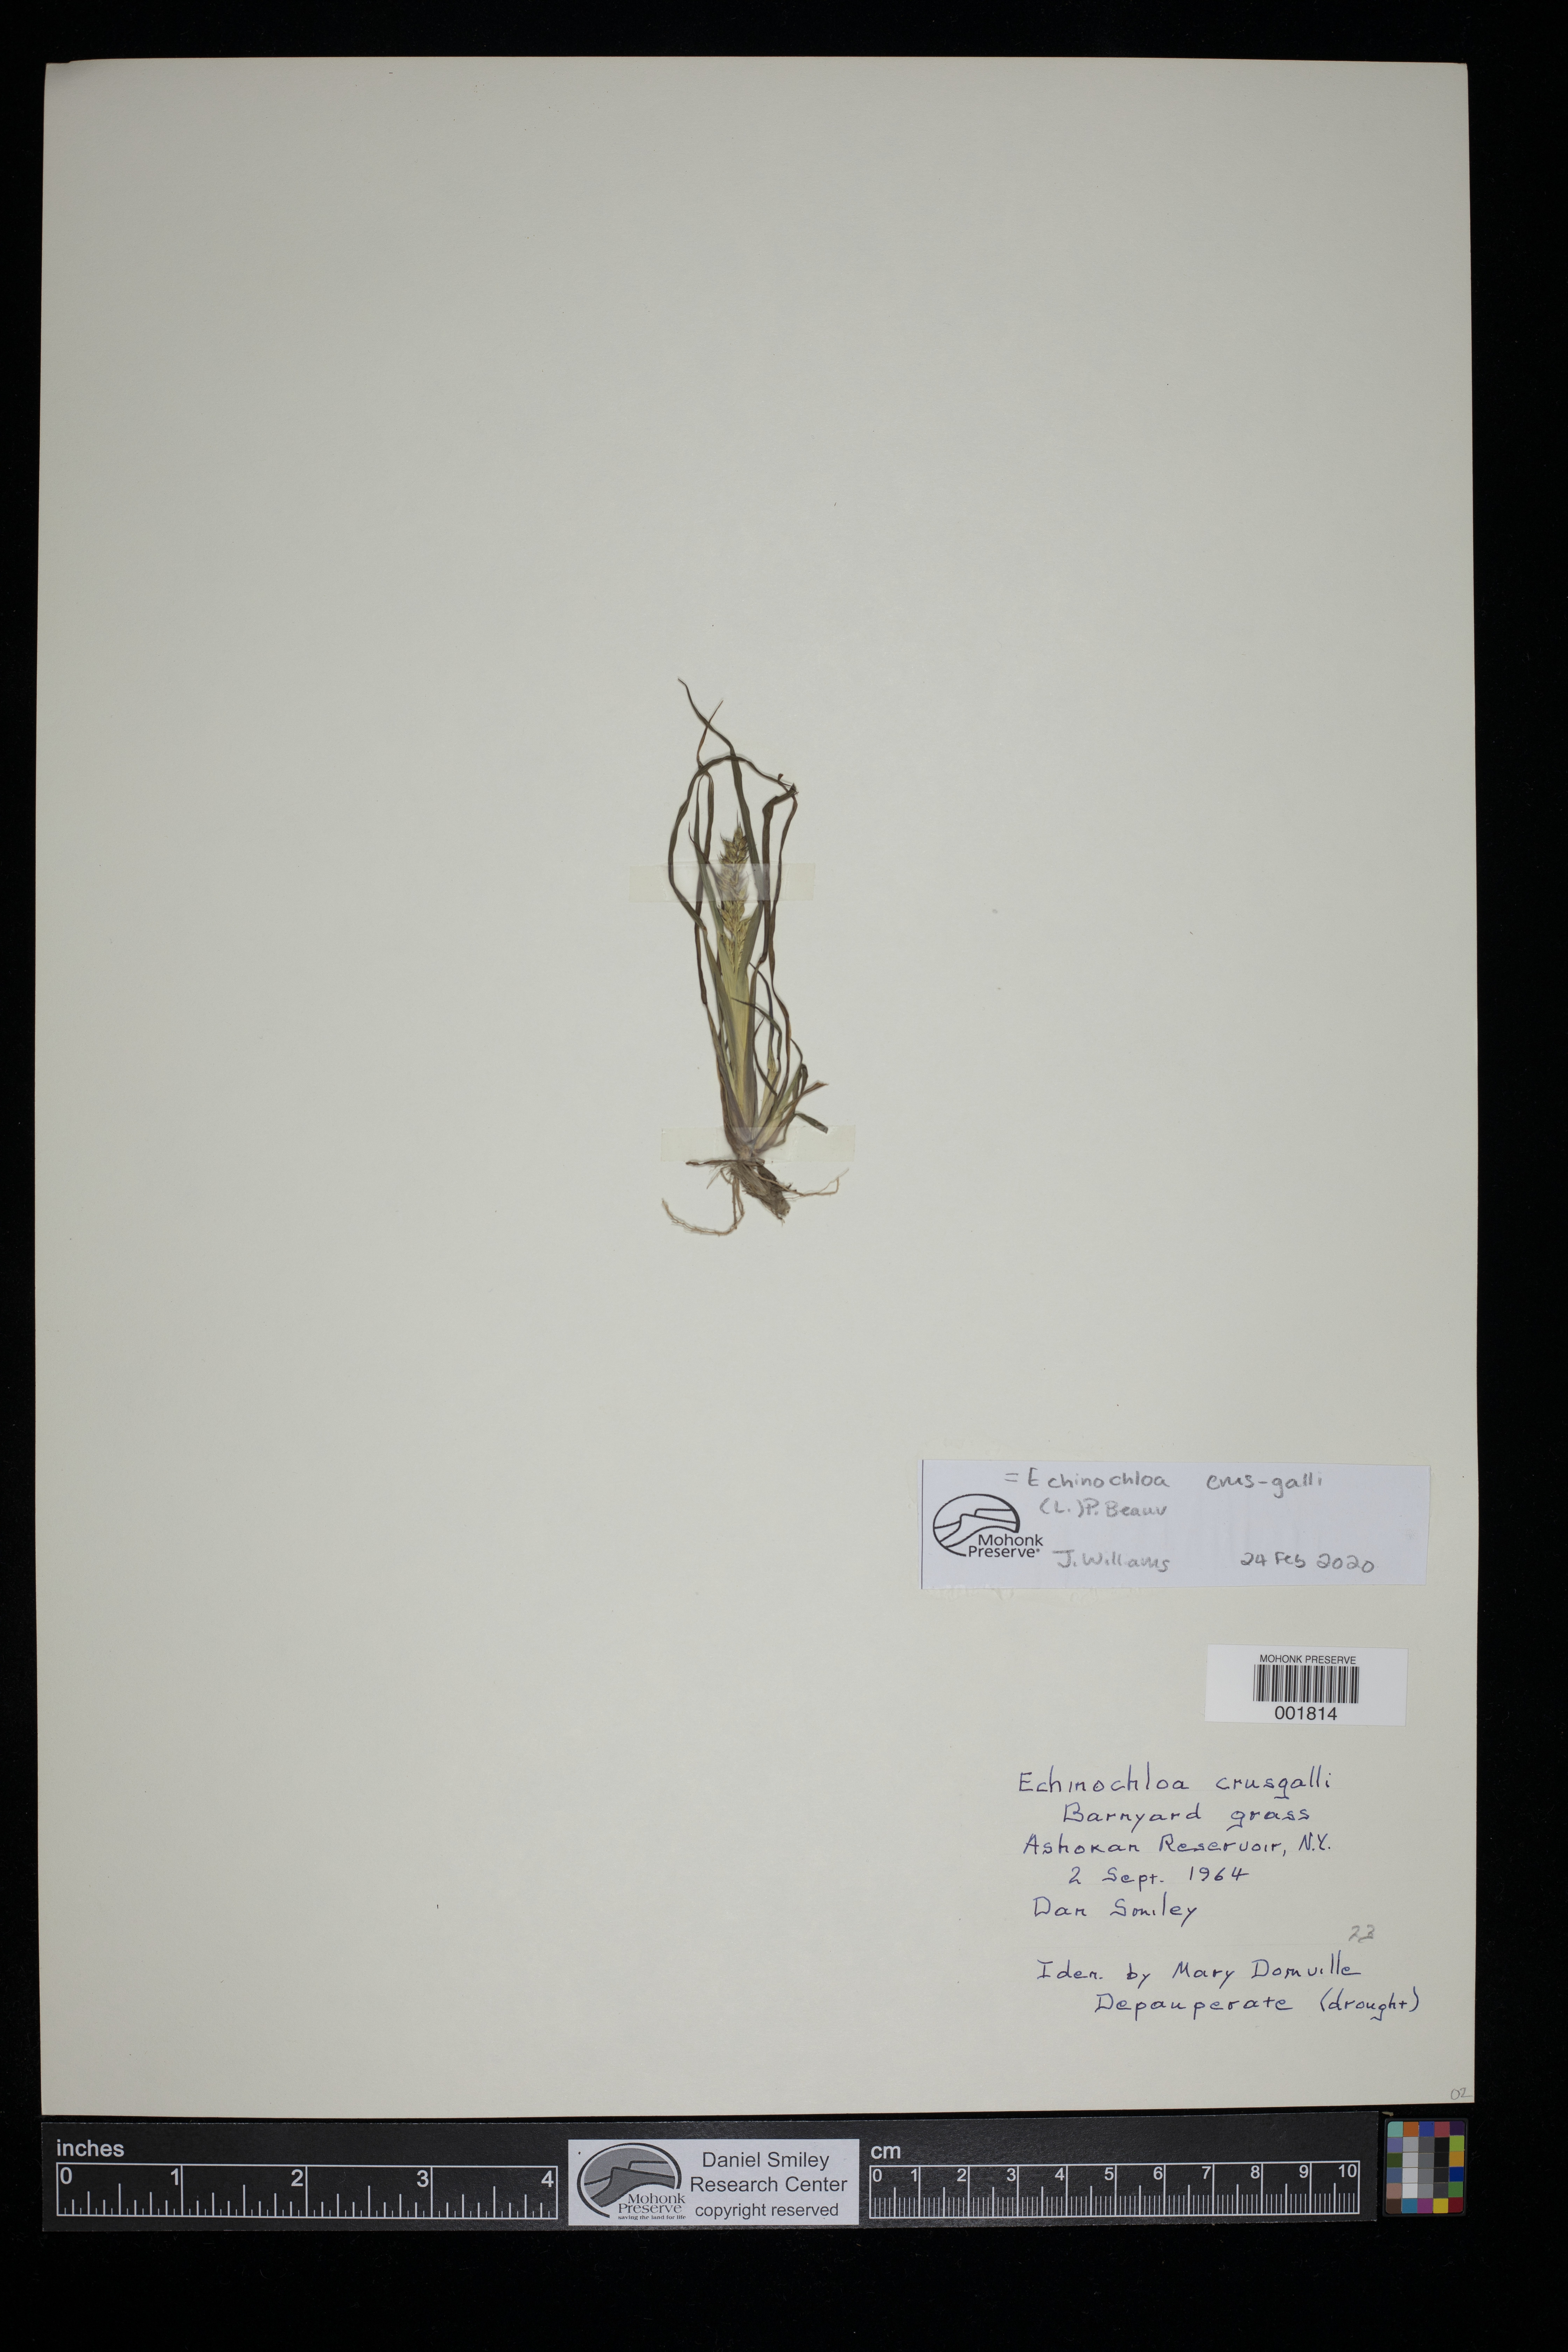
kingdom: Plantae
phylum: Tracheophyta
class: Liliopsida
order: Poales
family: Poaceae
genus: Echinochloa
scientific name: Echinochloa crus-galli
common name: Cockspur
